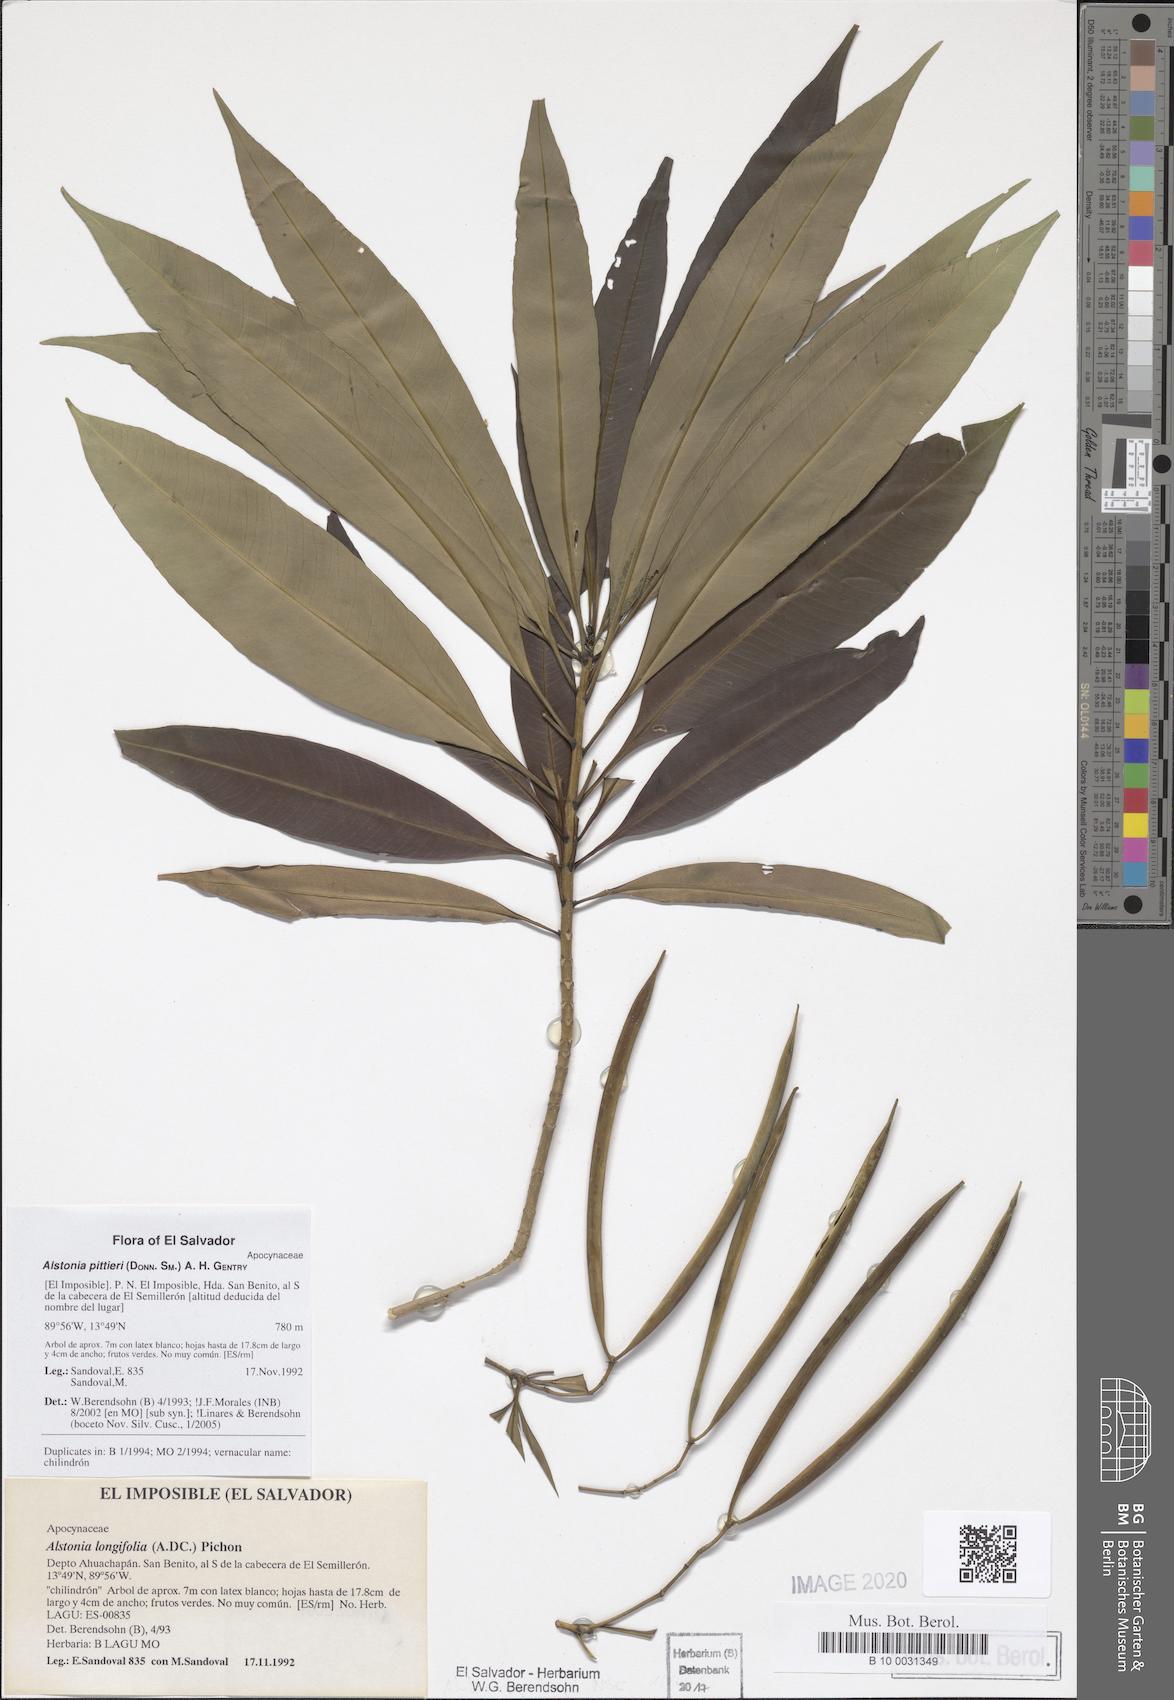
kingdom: Plantae
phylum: Tracheophyta
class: Magnoliopsida
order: Gentianales
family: Apocynaceae
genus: Tonduzia
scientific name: Tonduzia longifolia
